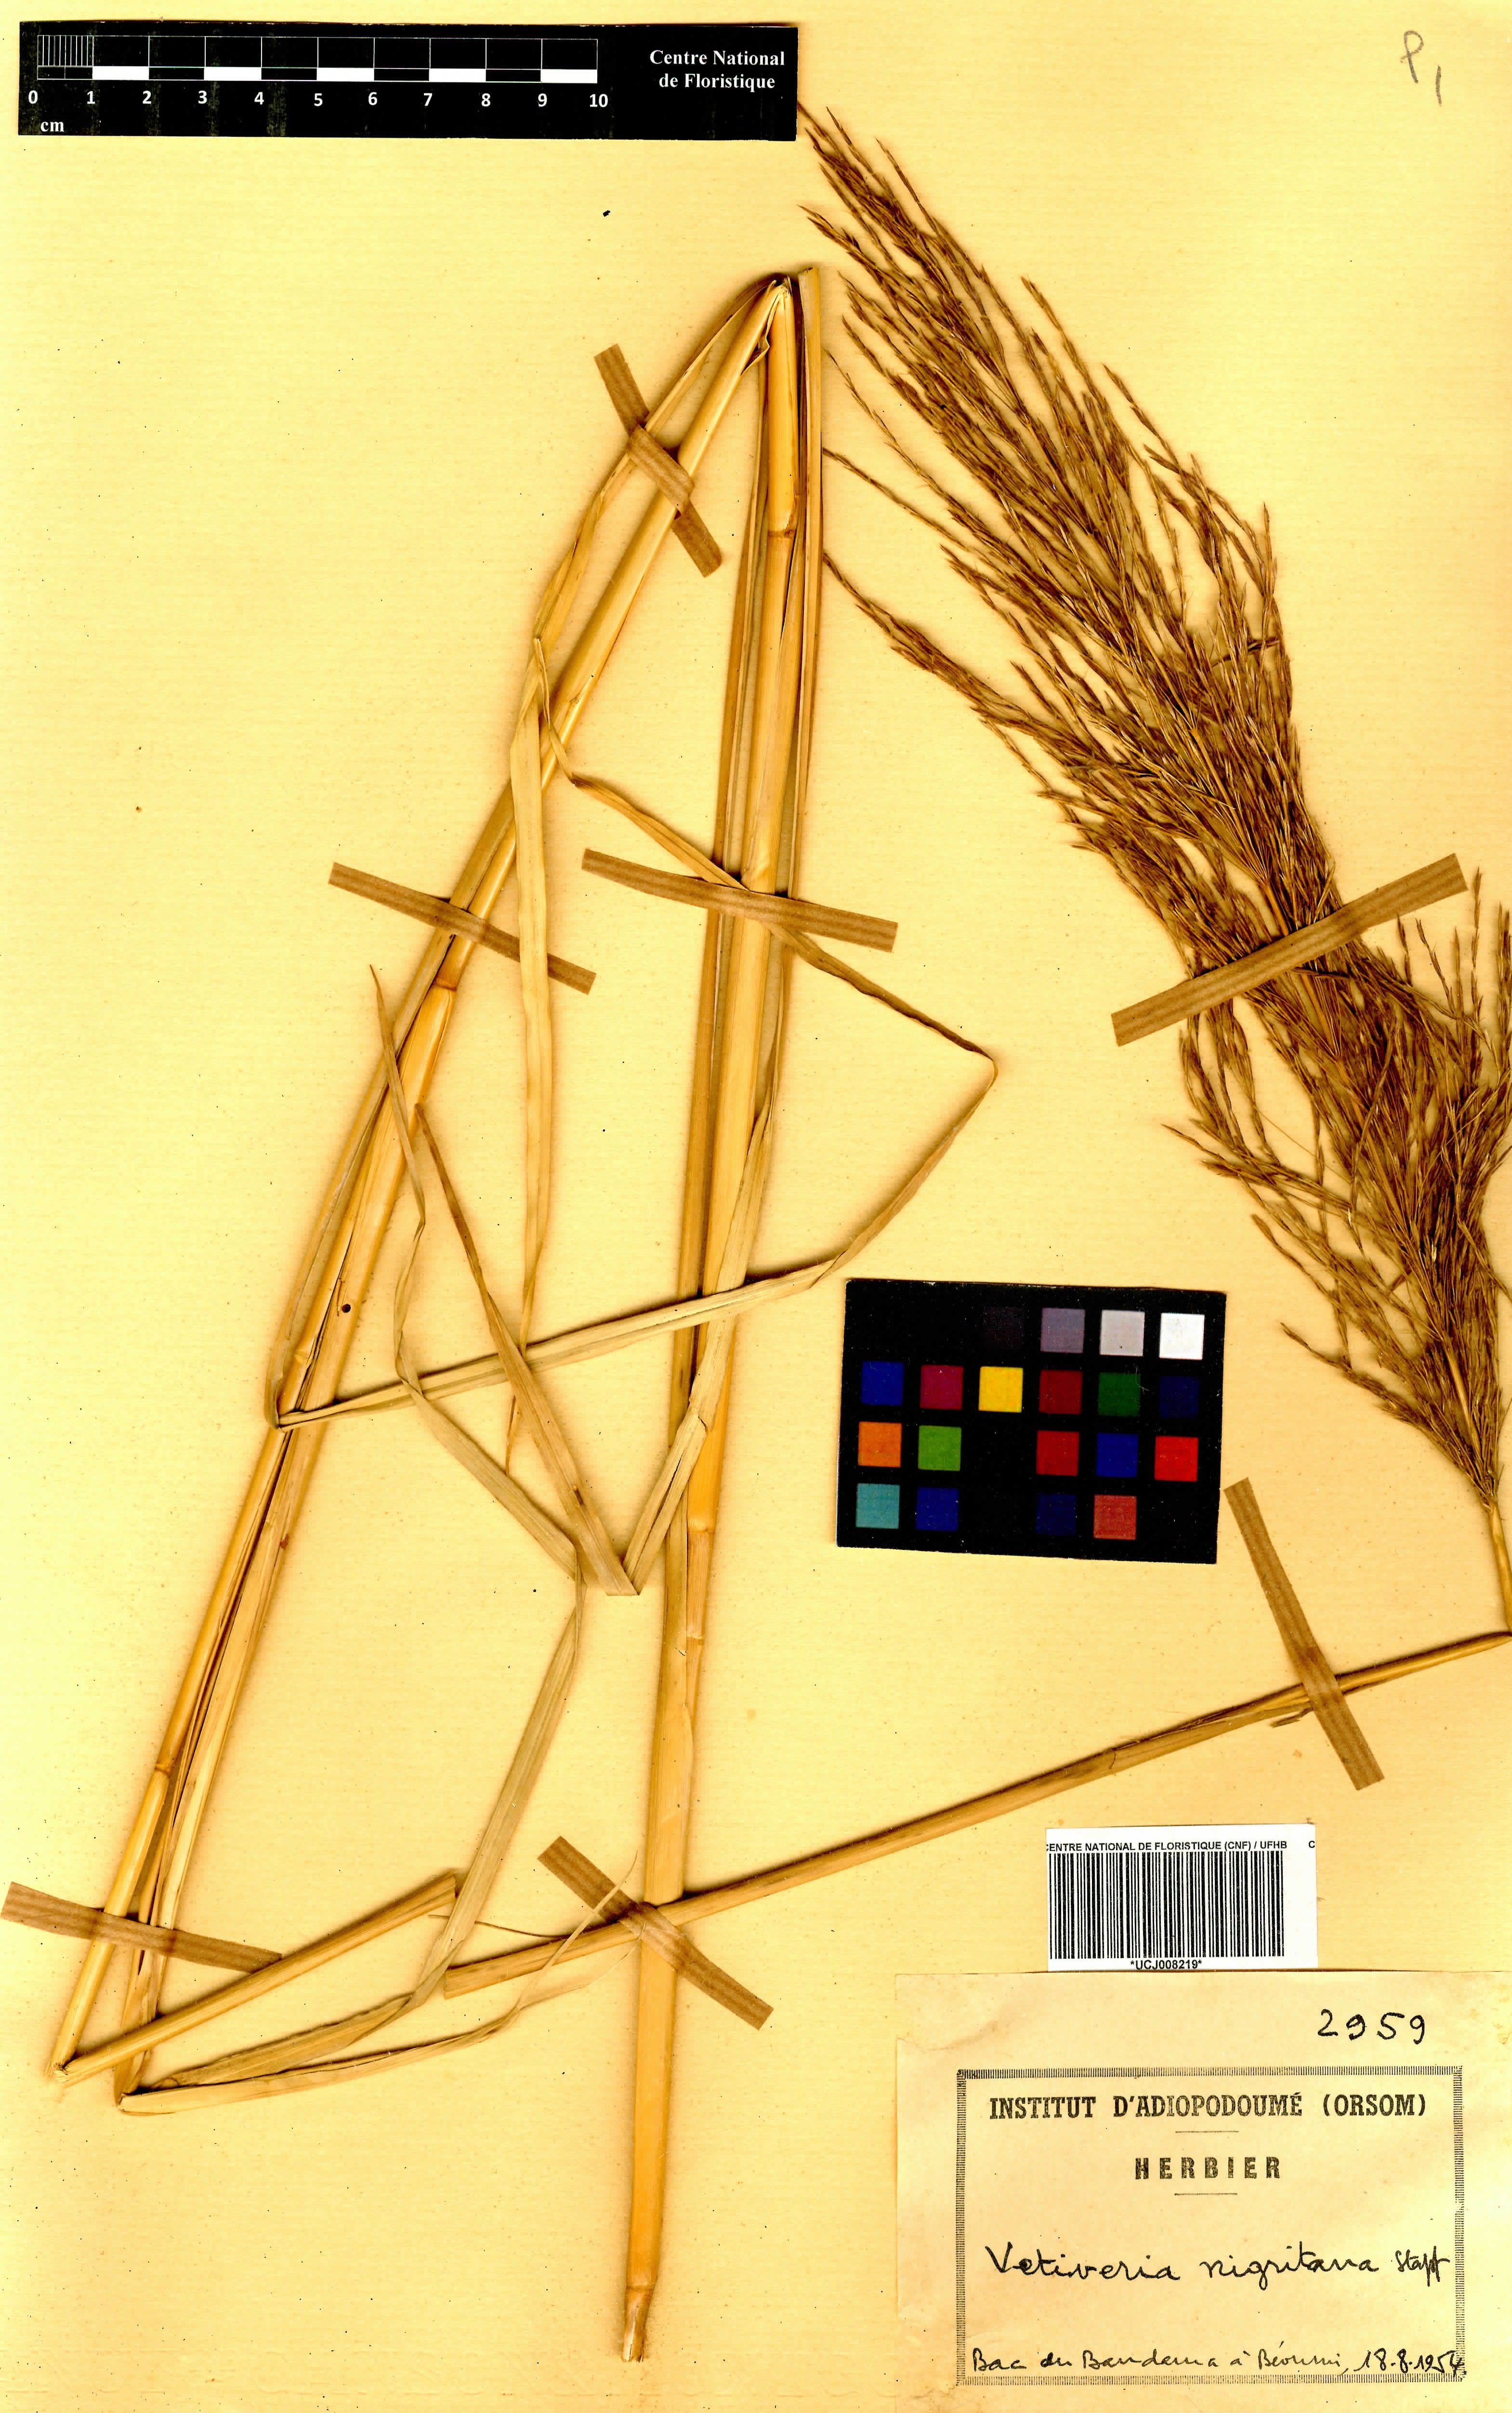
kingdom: Plantae
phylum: Tracheophyta
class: Liliopsida
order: Poales
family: Poaceae
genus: Chrysopogon
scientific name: Chrysopogon nigritanus
